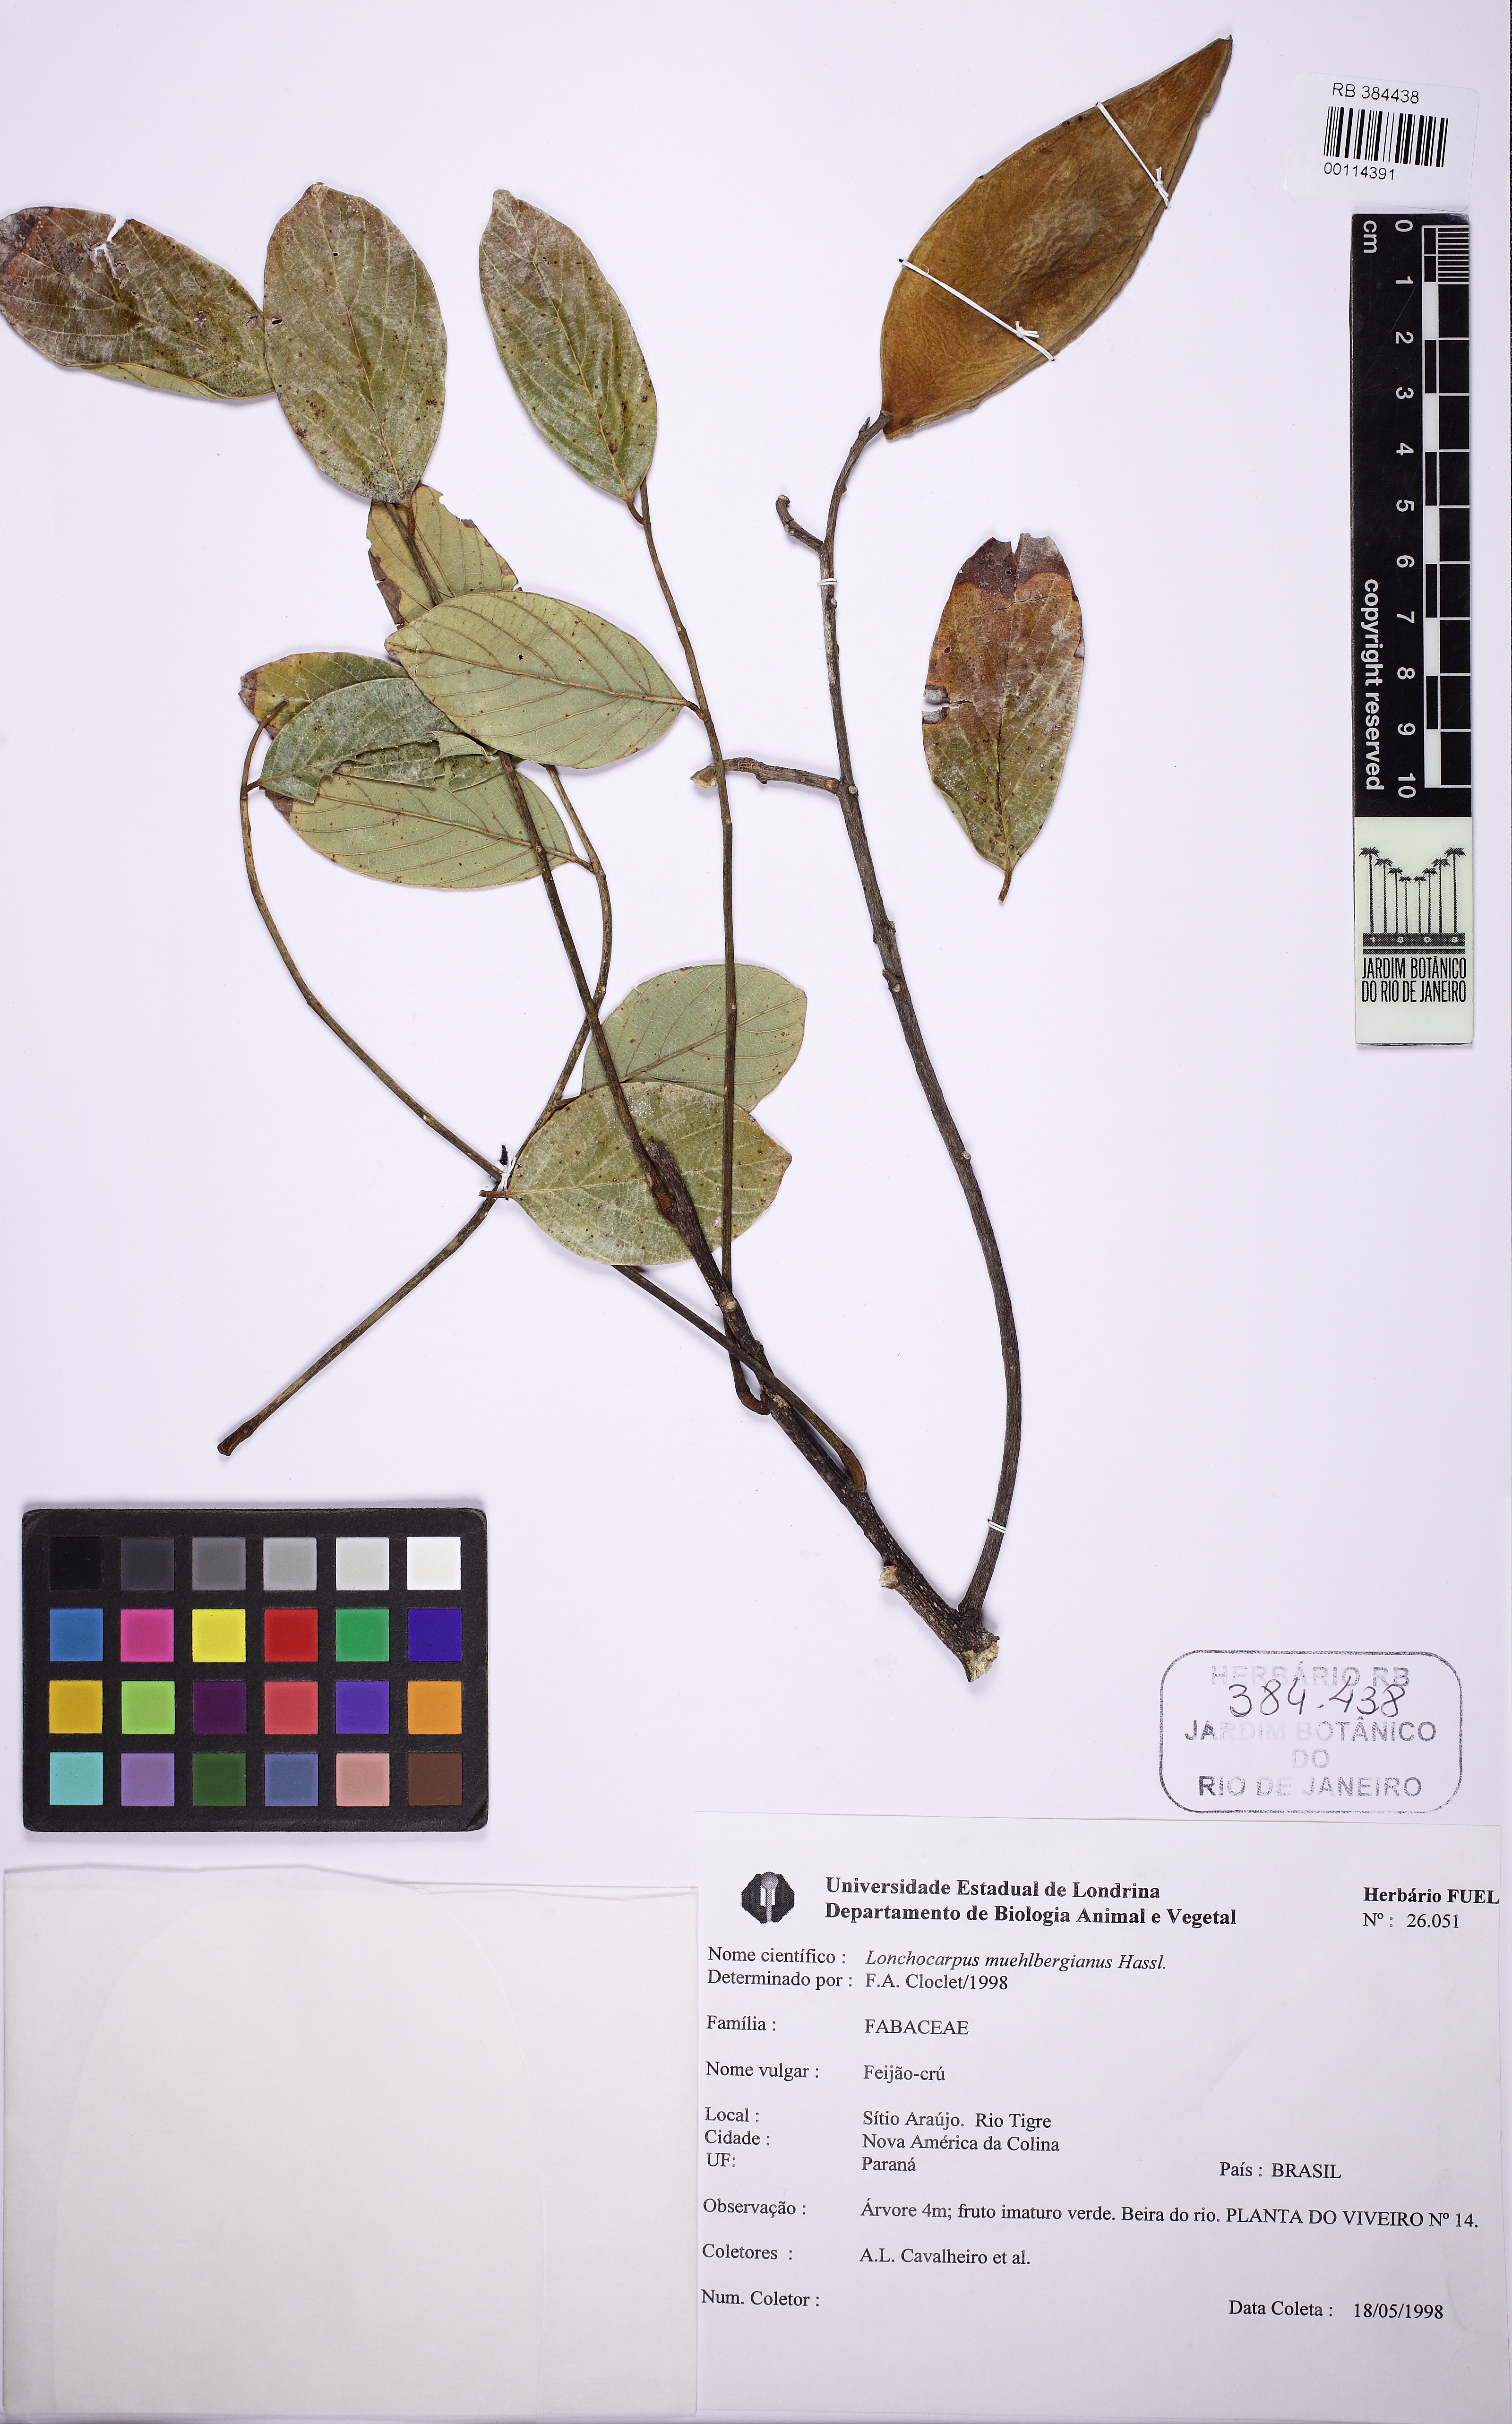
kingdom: Plantae
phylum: Tracheophyta
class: Magnoliopsida
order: Fabales
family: Fabaceae
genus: Dahlstedtia
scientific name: Dahlstedtia muehlbergiana
